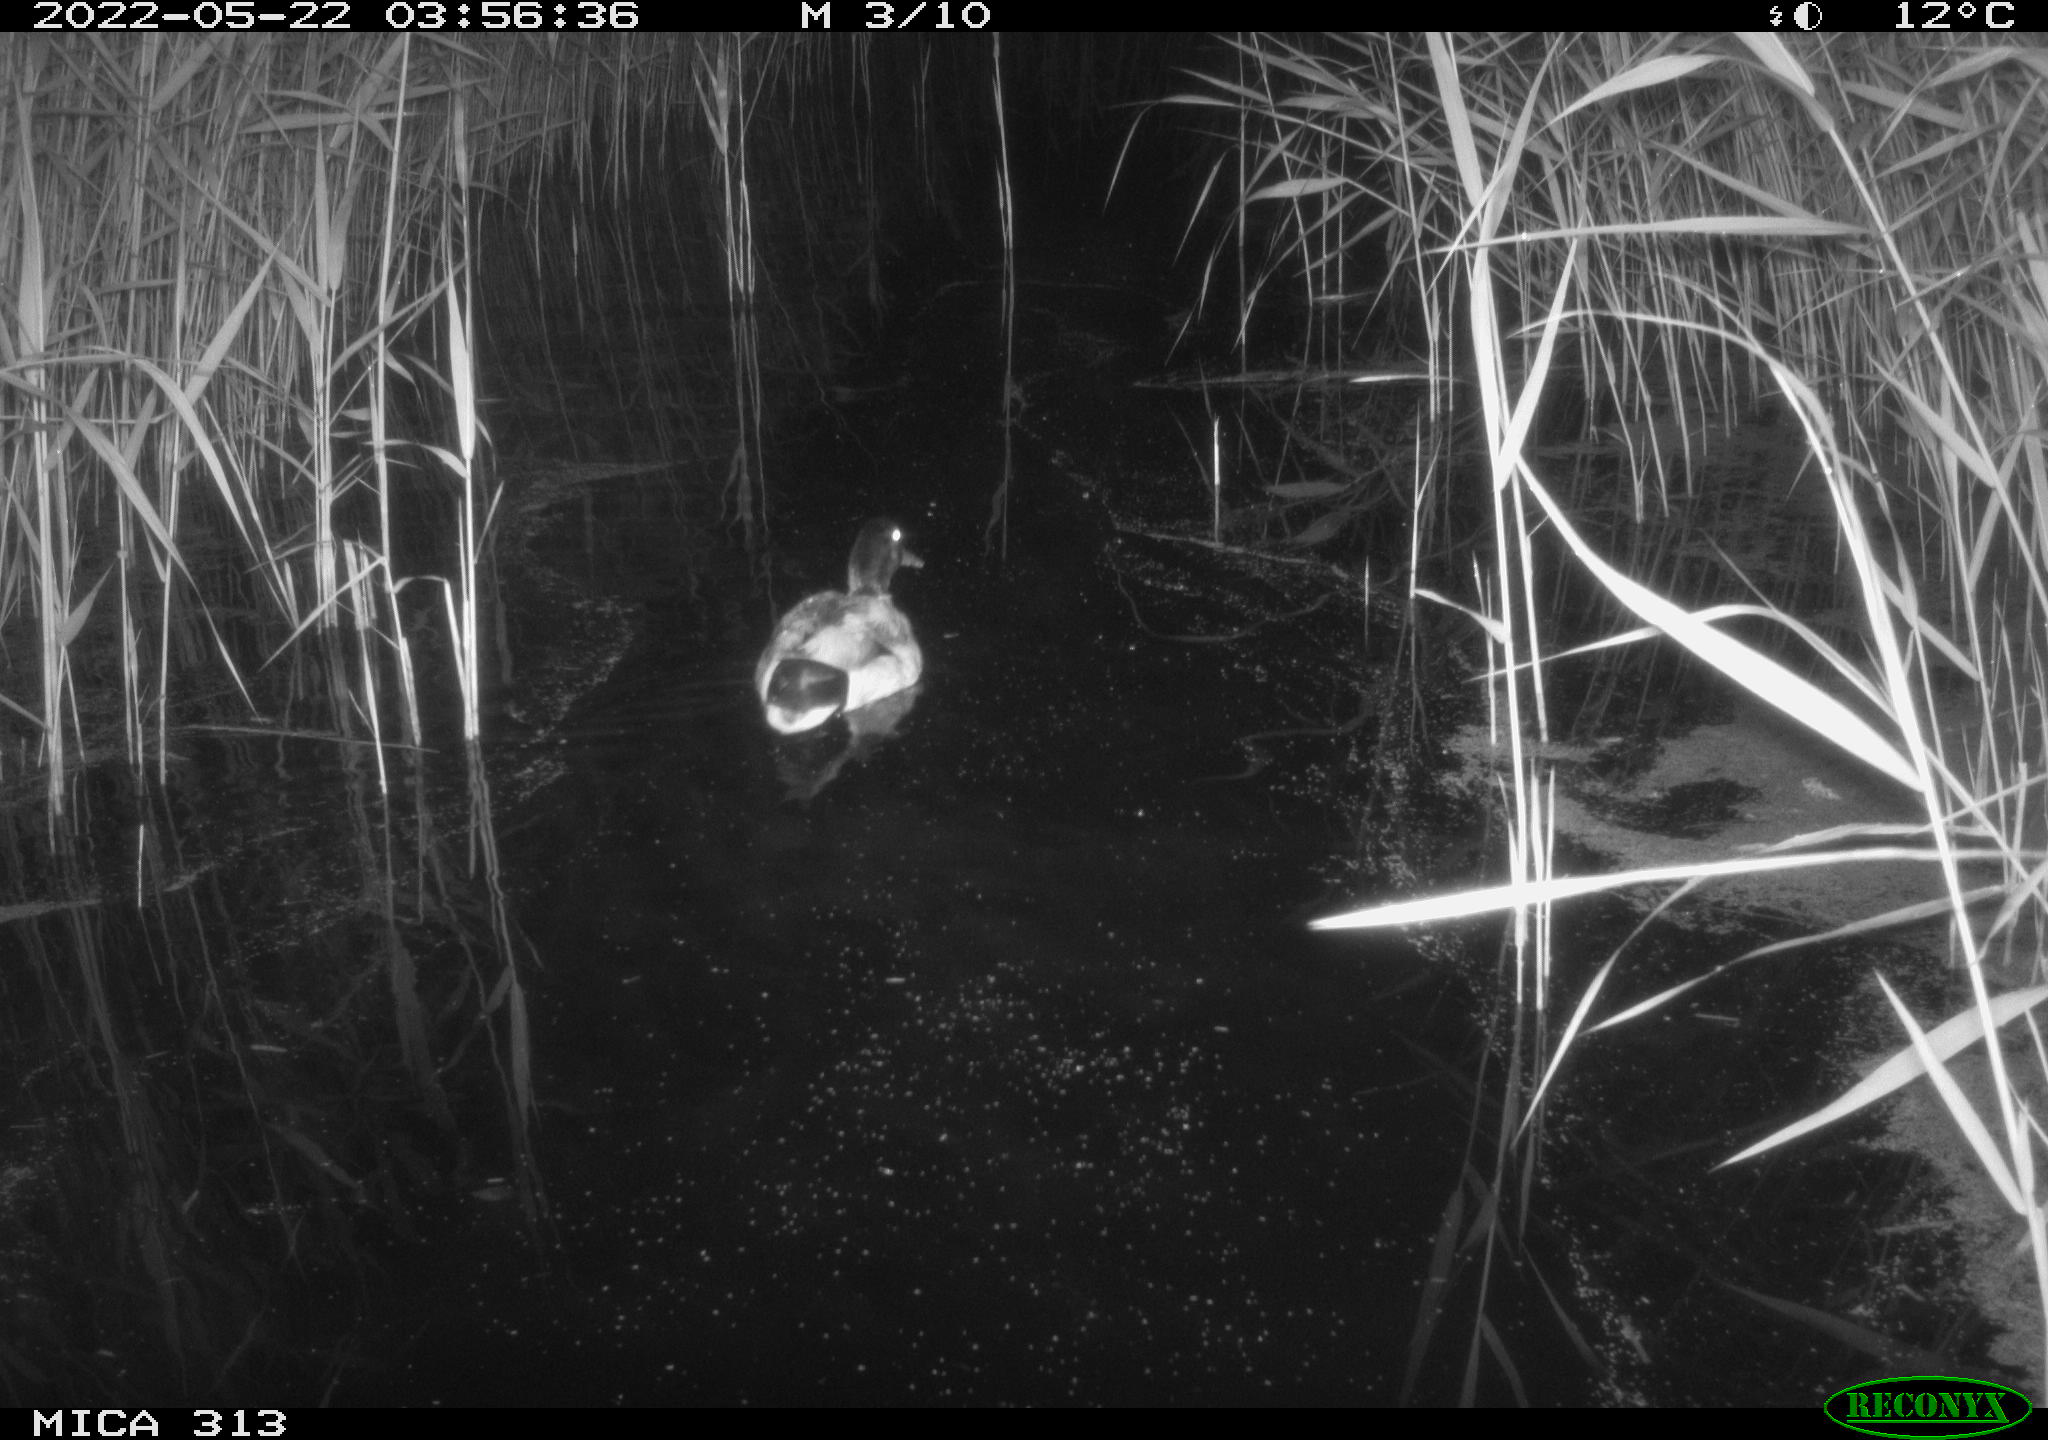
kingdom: Animalia
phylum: Chordata
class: Aves
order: Anseriformes
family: Anatidae
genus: Anas
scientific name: Anas platyrhynchos
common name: Mallard
